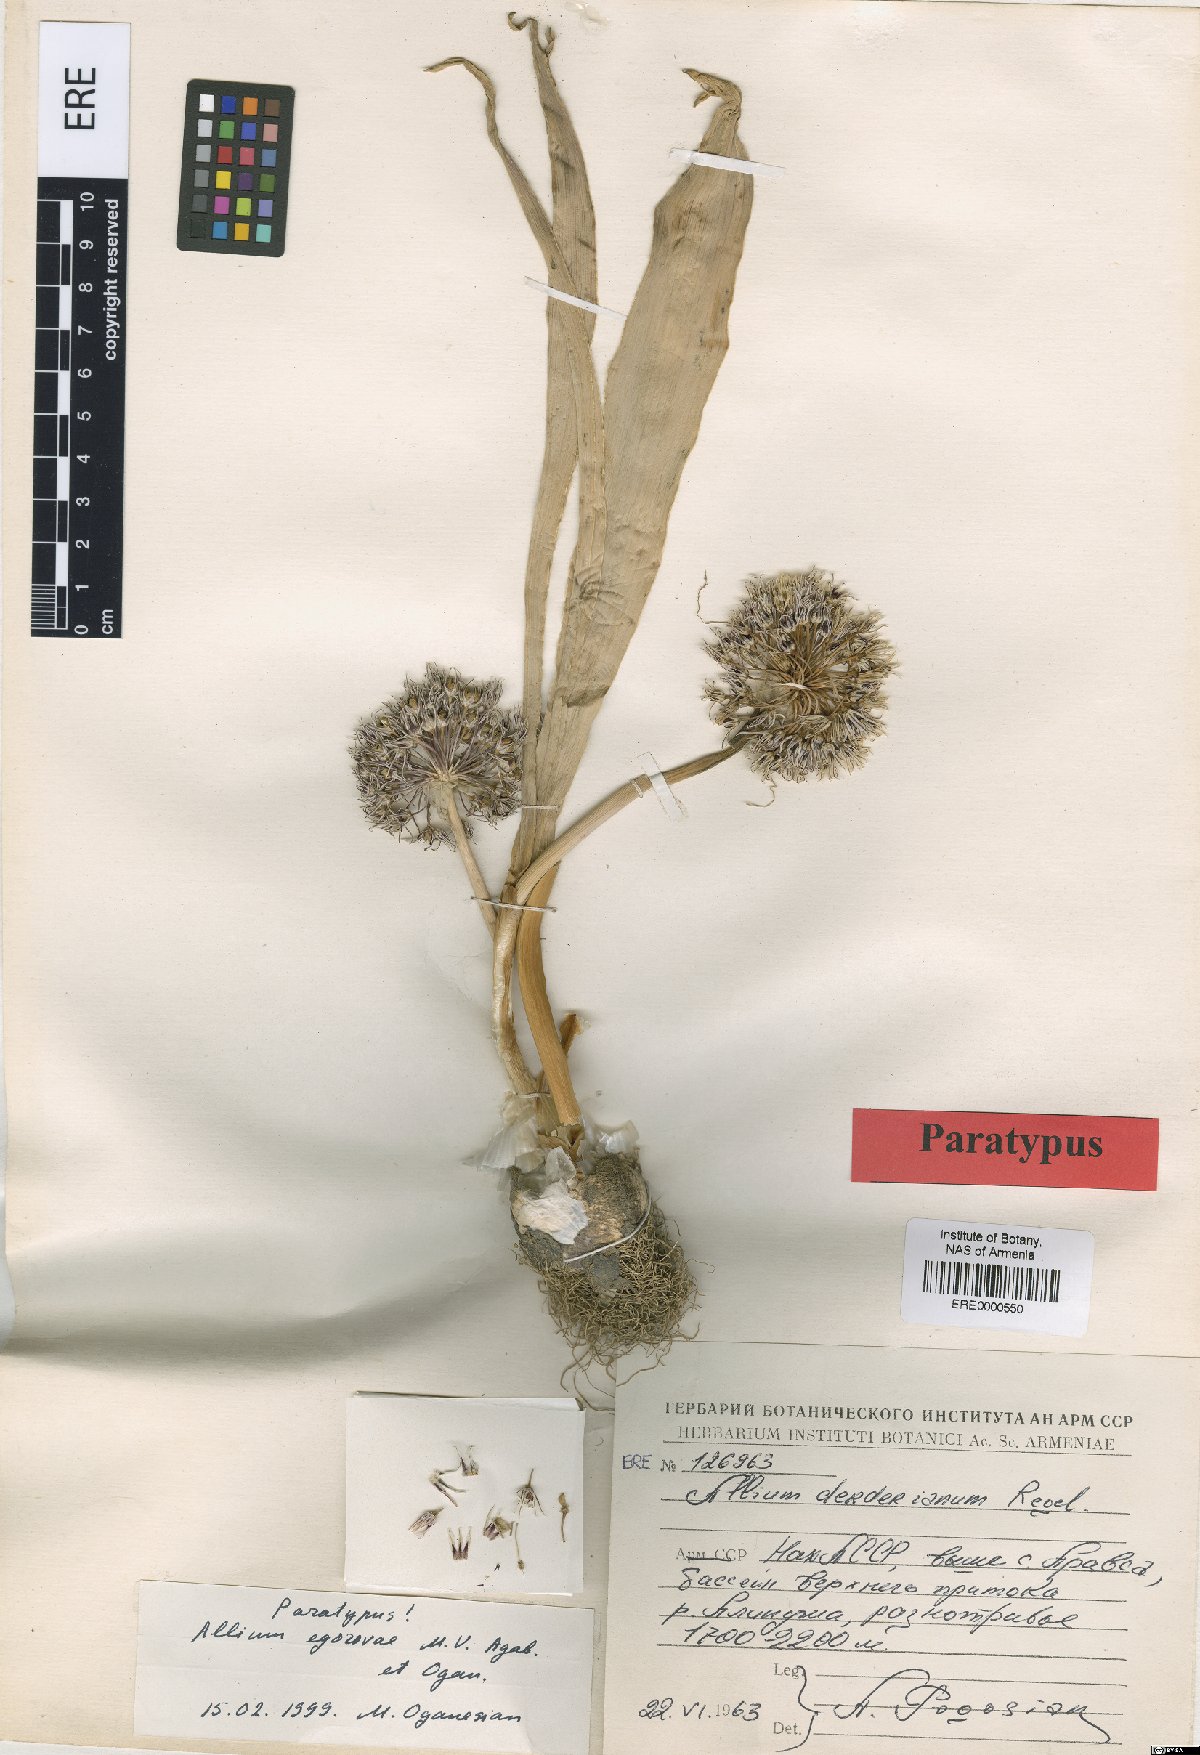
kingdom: Plantae
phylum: Tracheophyta
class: Liliopsida
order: Asparagales
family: Amaryllidaceae
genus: Allium
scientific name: Allium egorovae
